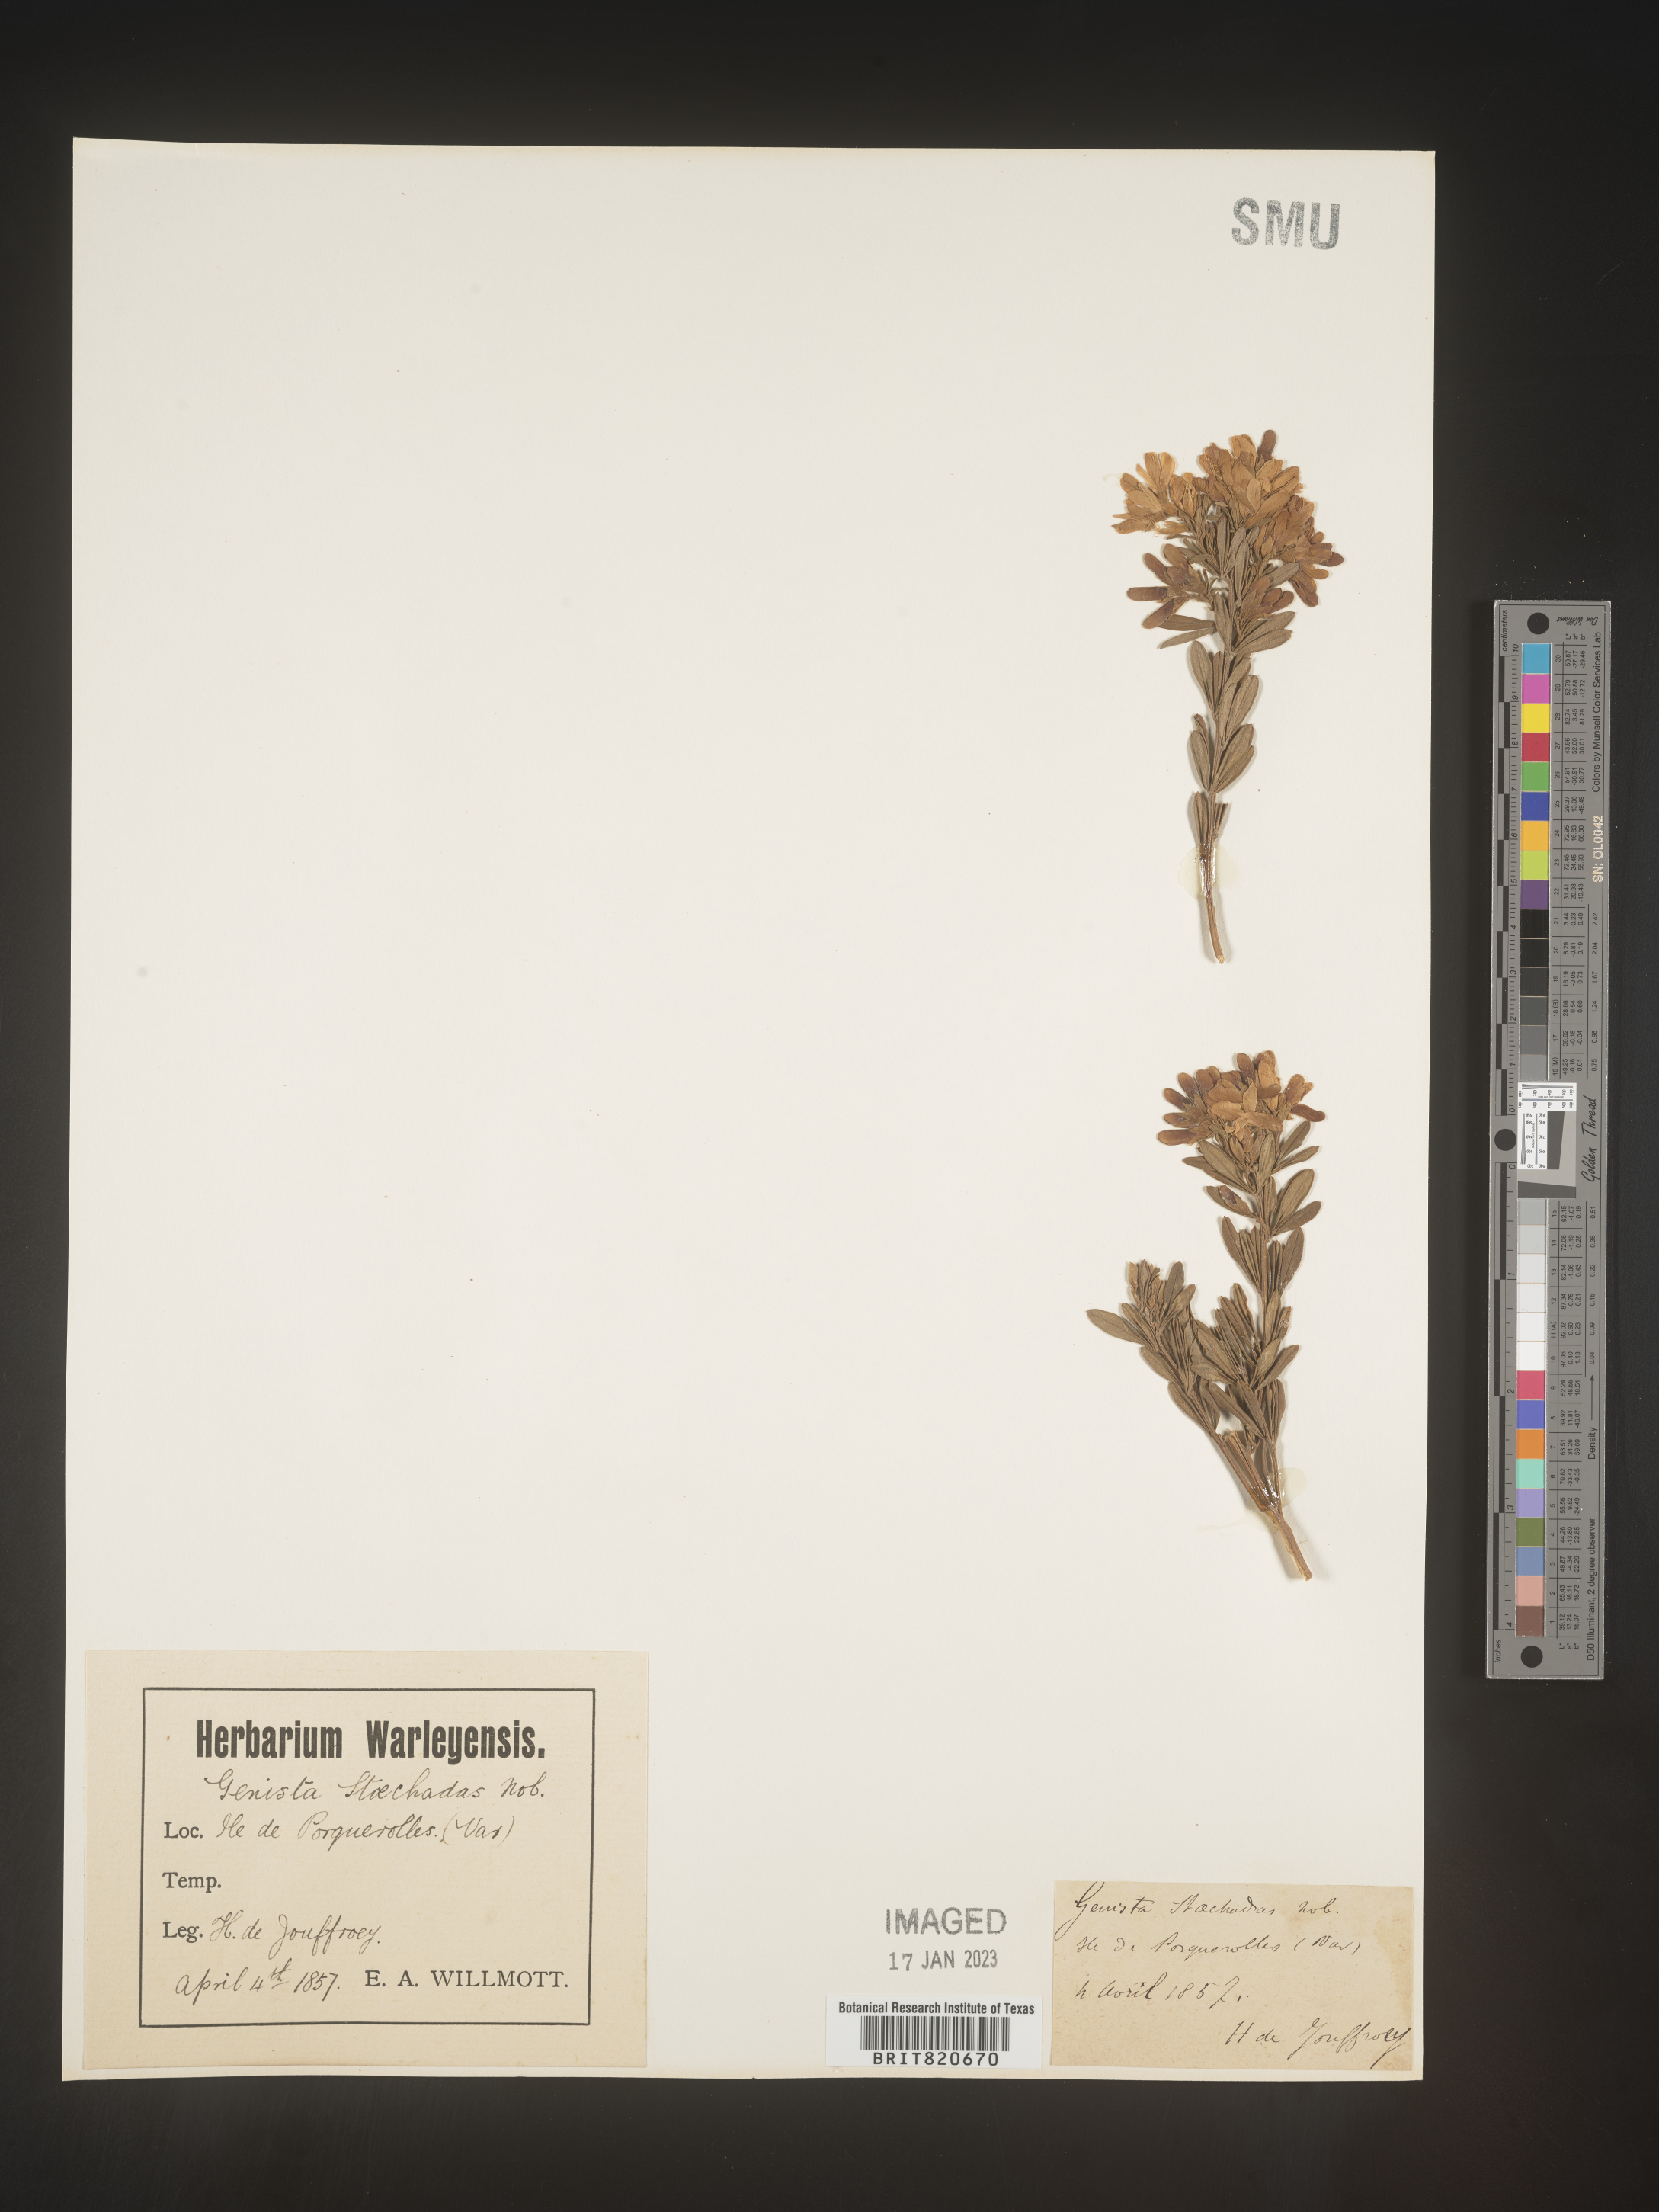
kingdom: Plantae
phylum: Tracheophyta
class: Magnoliopsida
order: Fabales
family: Fabaceae
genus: Genista
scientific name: Genista
